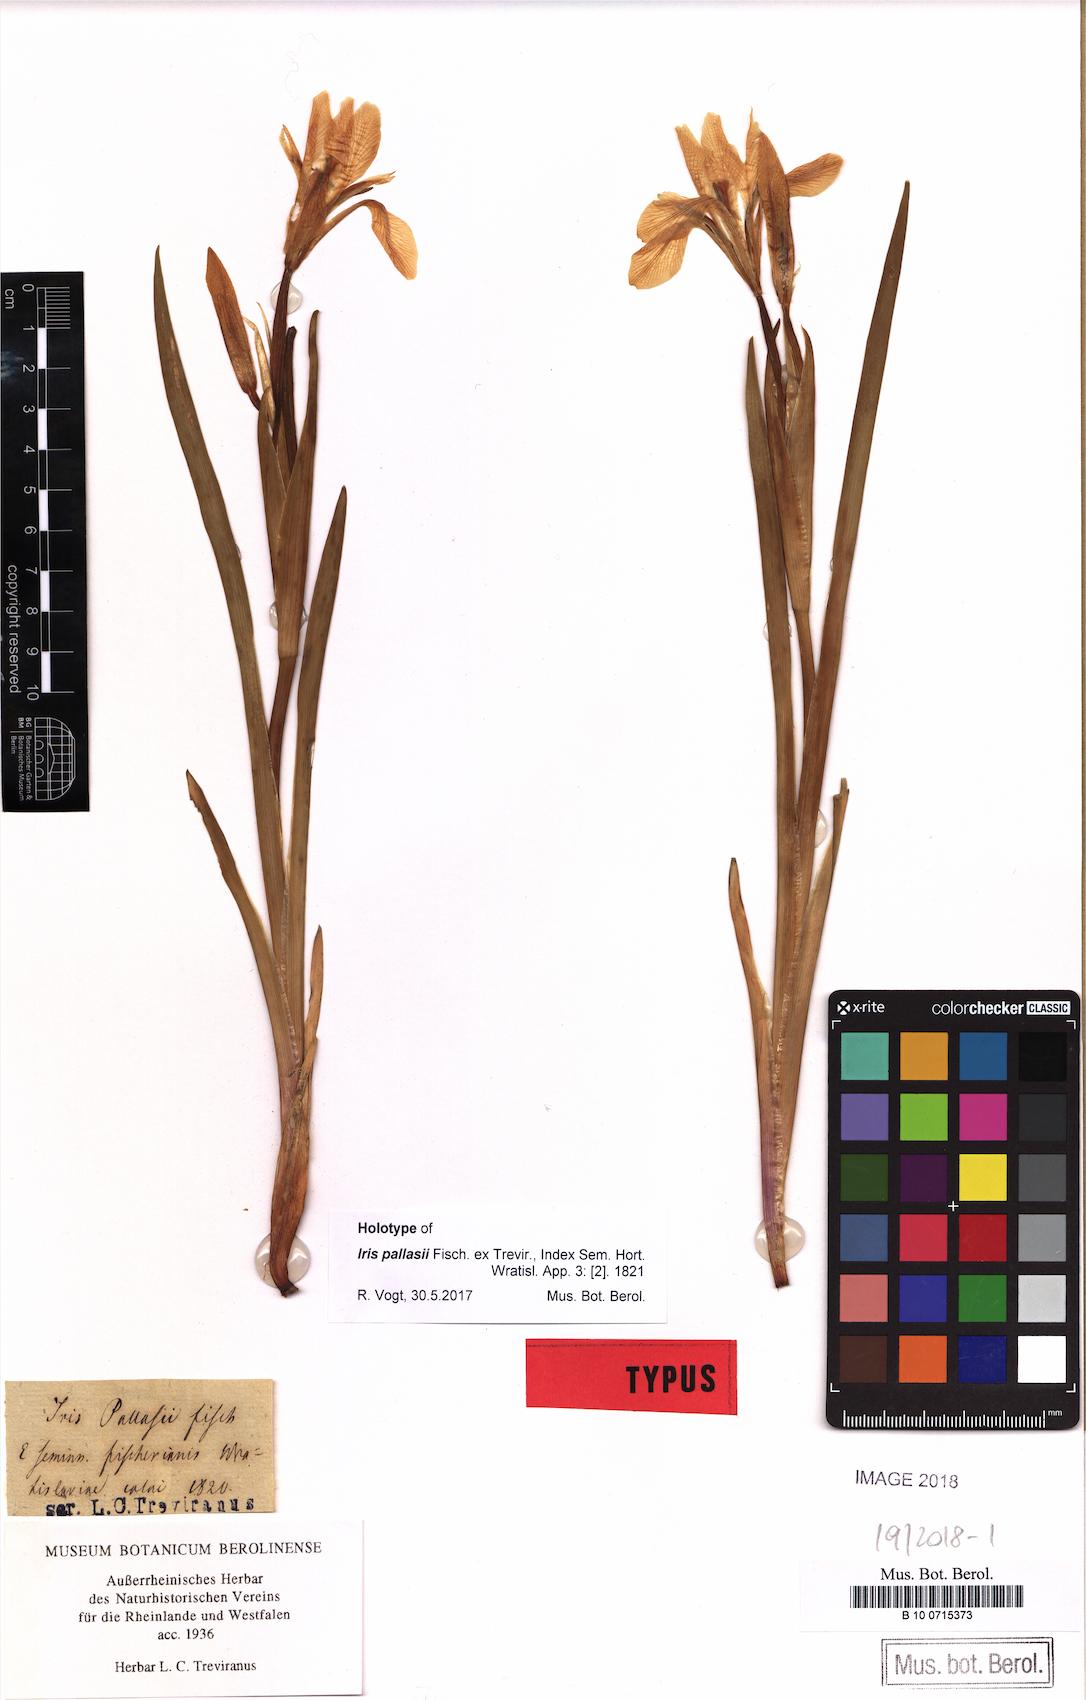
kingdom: Plantae
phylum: Tracheophyta
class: Liliopsida
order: Asparagales
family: Iridaceae
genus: Iris
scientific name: Iris lactea
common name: White-flower chinese iris
